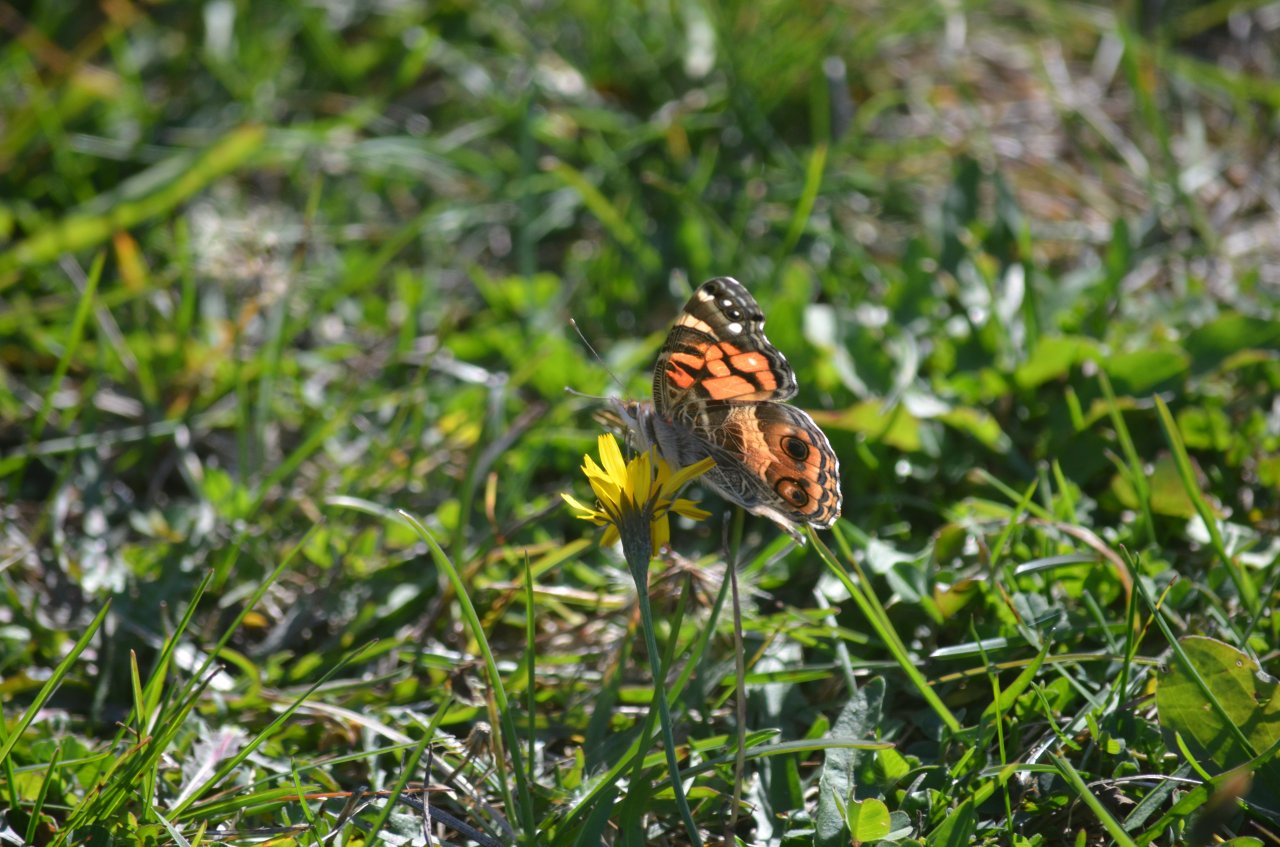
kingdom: Animalia
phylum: Arthropoda
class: Insecta
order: Lepidoptera
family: Nymphalidae
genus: Vanessa
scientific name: Vanessa virginiensis
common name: American Lady
